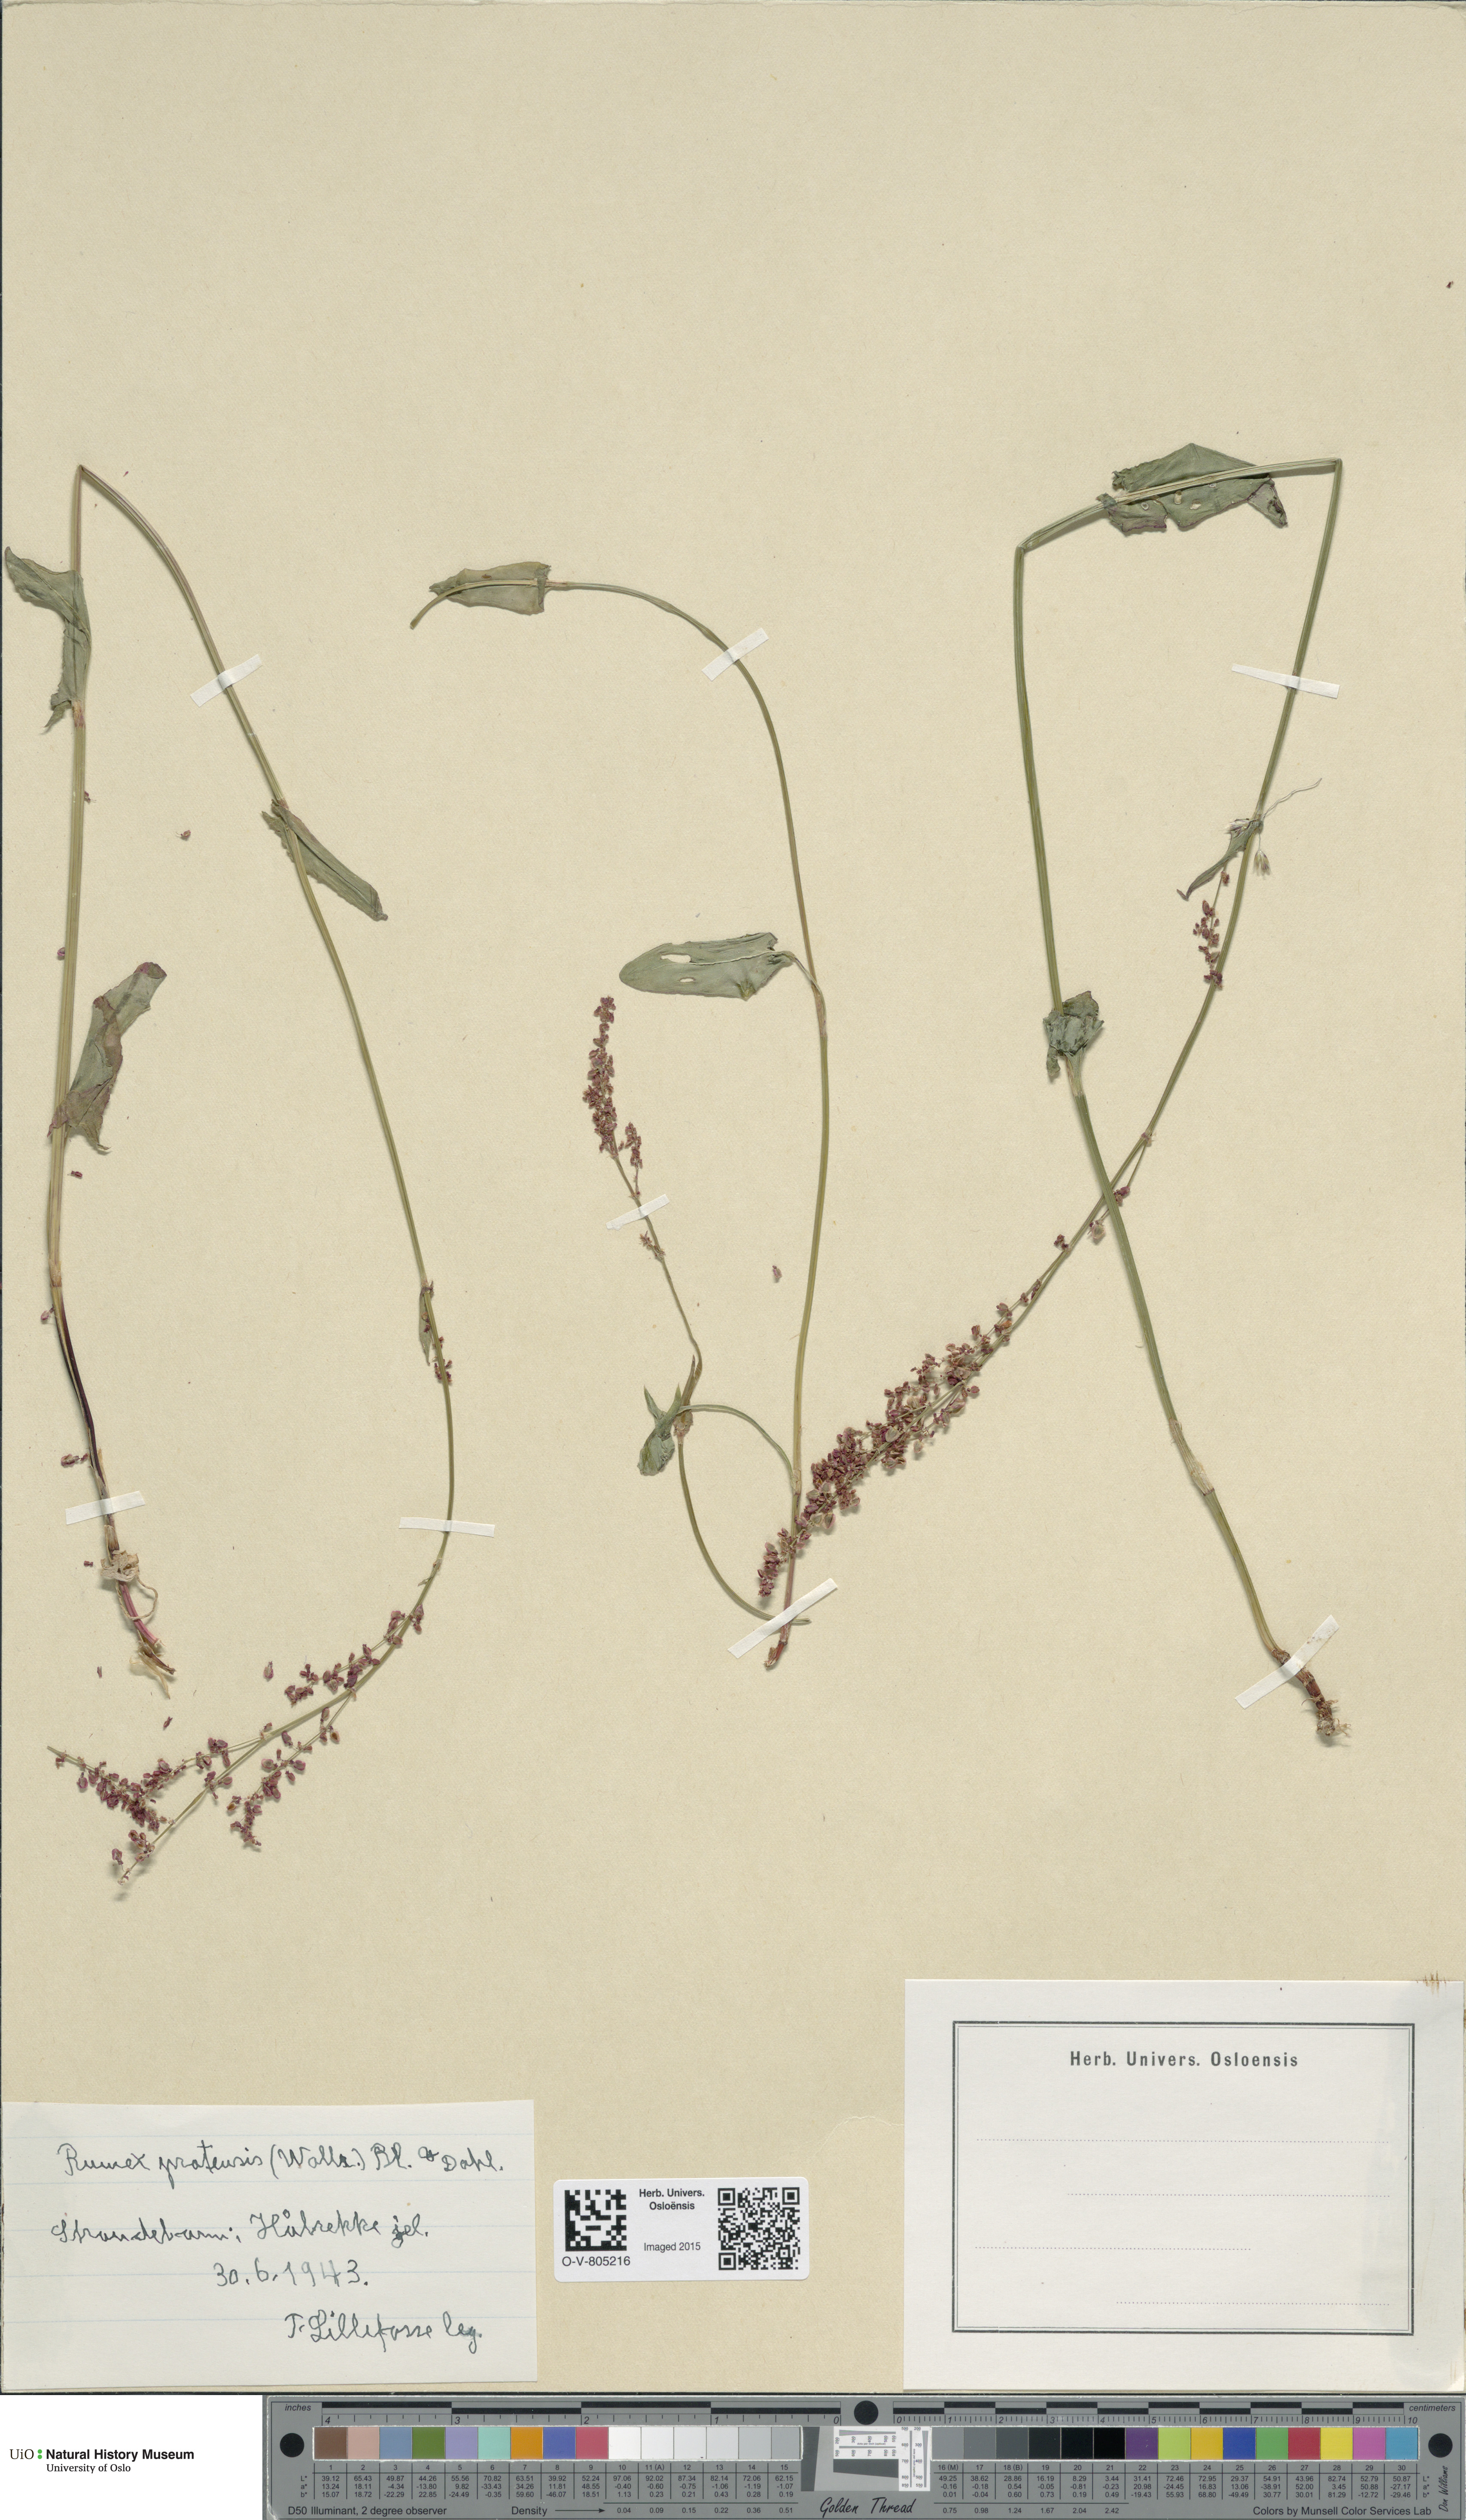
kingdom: Plantae
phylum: Tracheophyta
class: Magnoliopsida
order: Caryophyllales
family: Polygonaceae
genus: Rumex
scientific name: Rumex acetosa
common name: Garden sorrel
